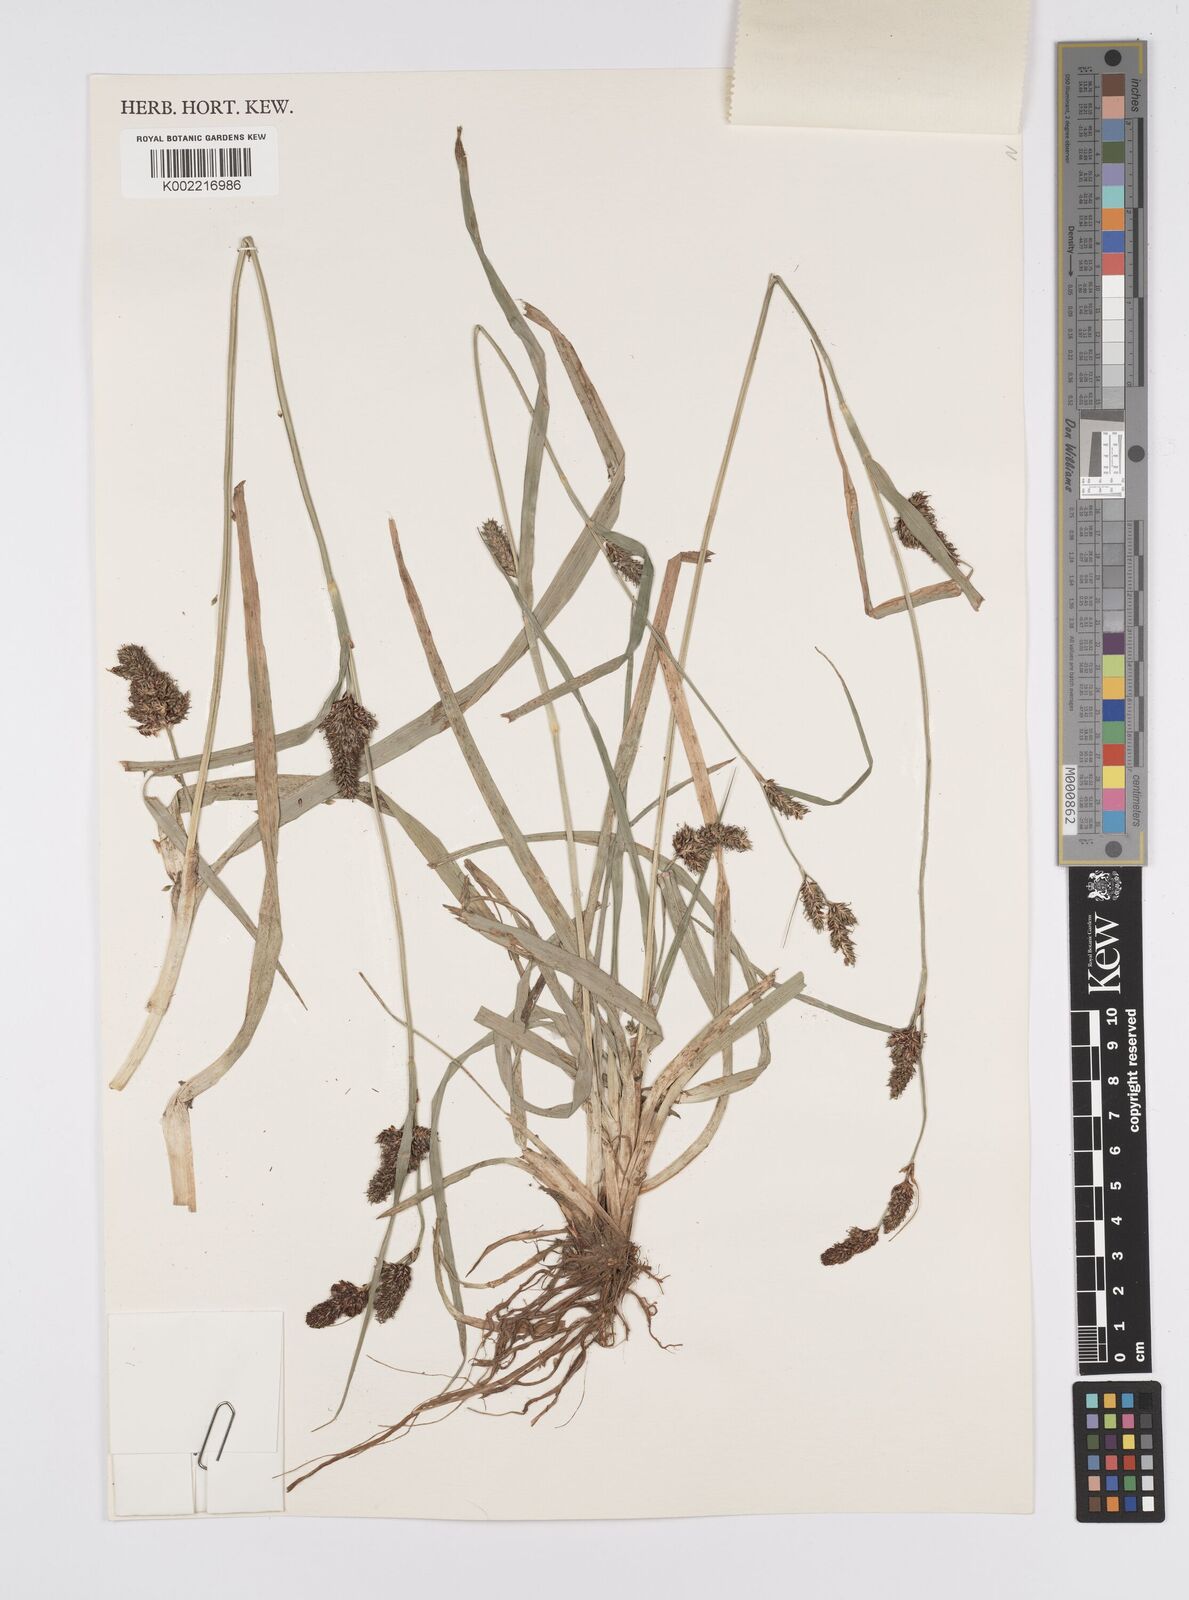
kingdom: Plantae
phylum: Tracheophyta
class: Liliopsida
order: Poales
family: Cyperaceae
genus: Carex
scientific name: Carex distans
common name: Distant sedge
